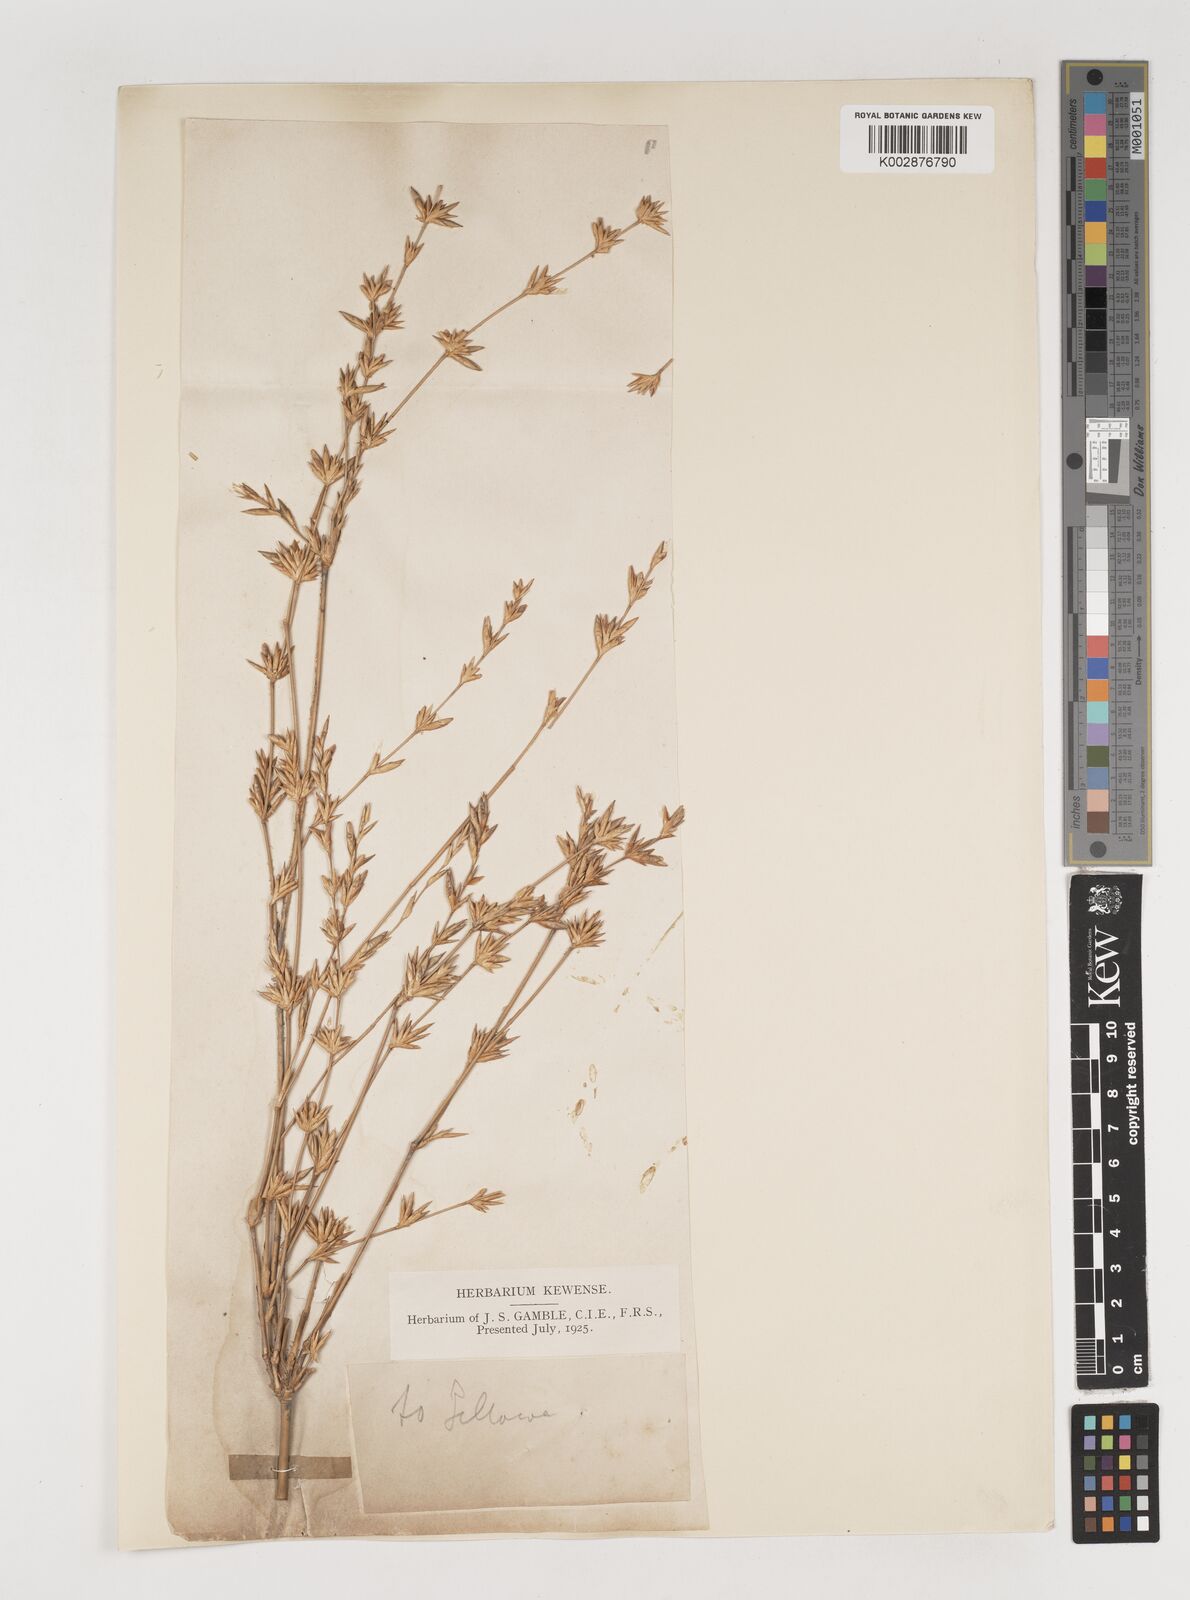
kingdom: Plantae
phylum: Tracheophyta
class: Liliopsida
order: Poales
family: Poaceae
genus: Bambusa
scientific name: Bambusa polymorpha
